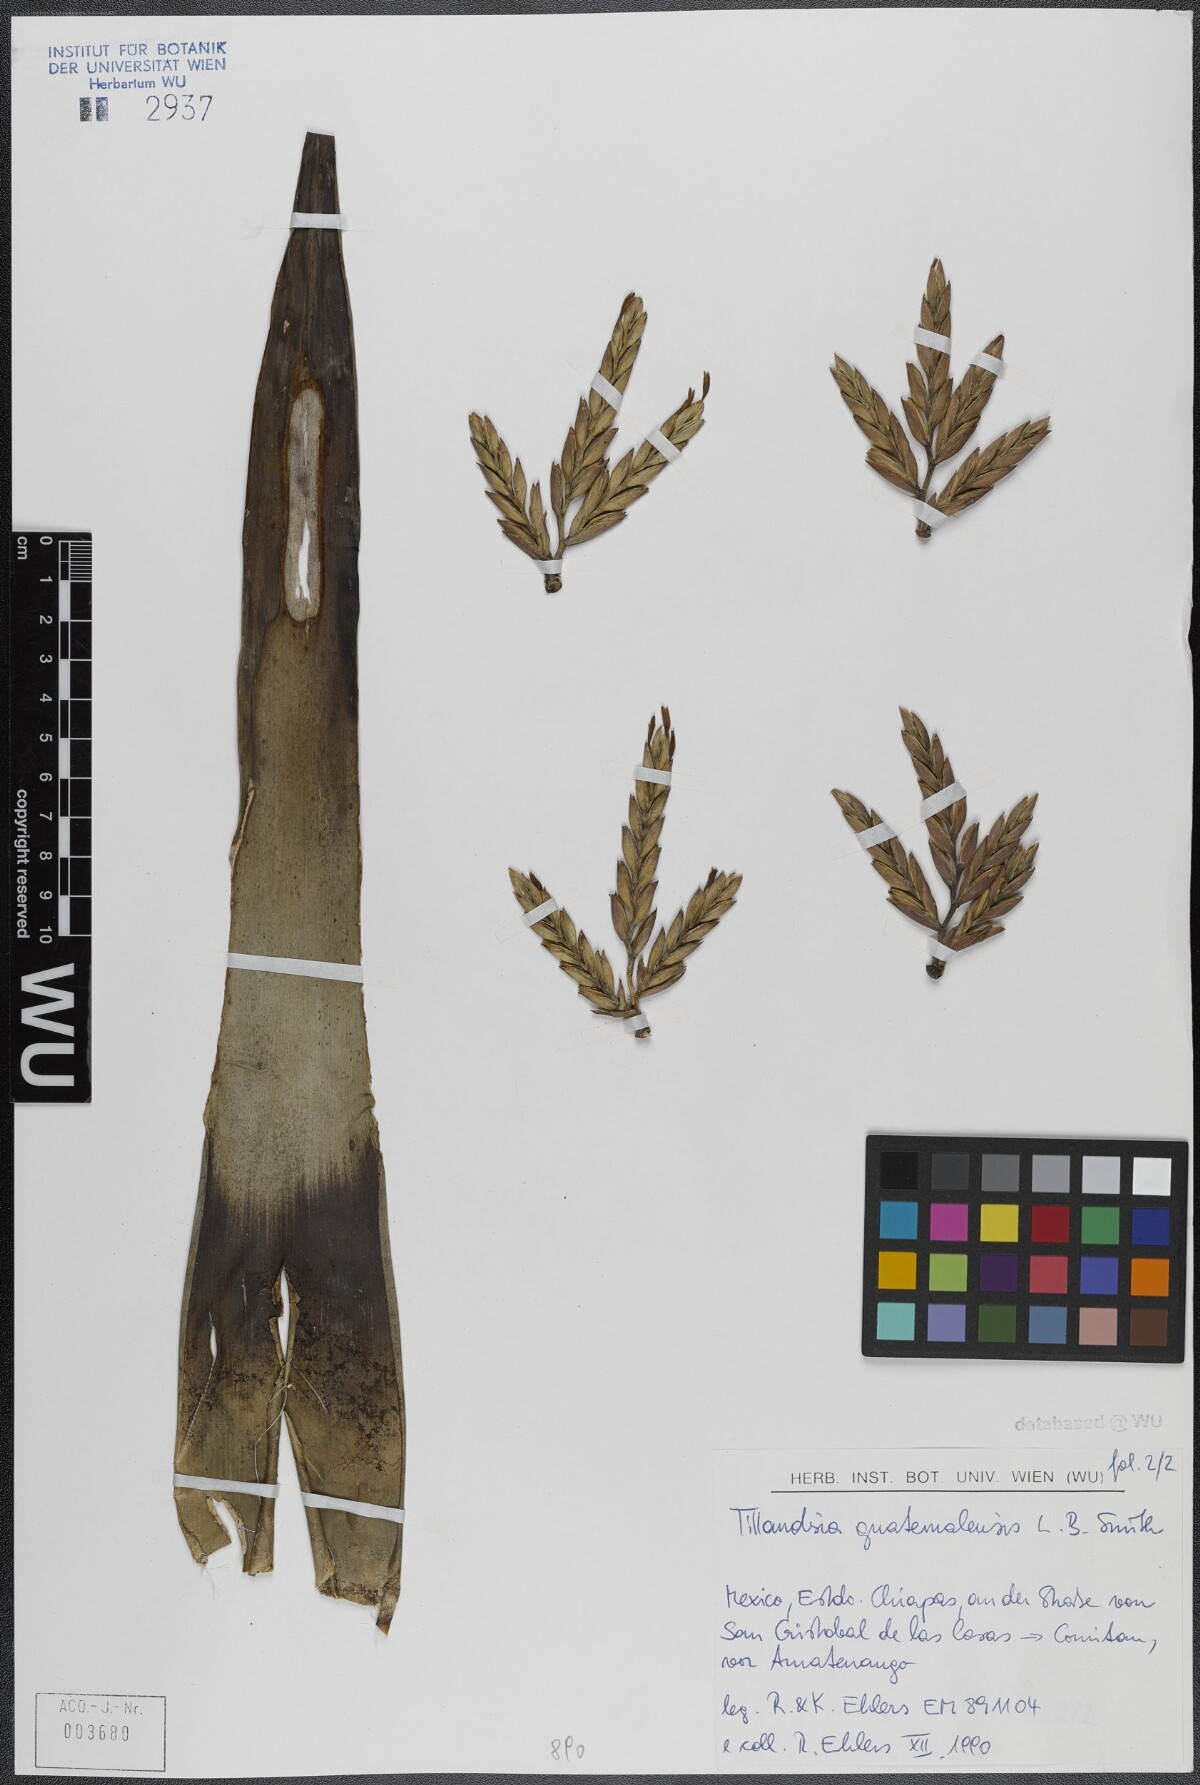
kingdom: Plantae
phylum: Tracheophyta
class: Liliopsida
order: Poales
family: Bromeliaceae
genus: Tillandsia
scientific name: Tillandsia guatemalensis
